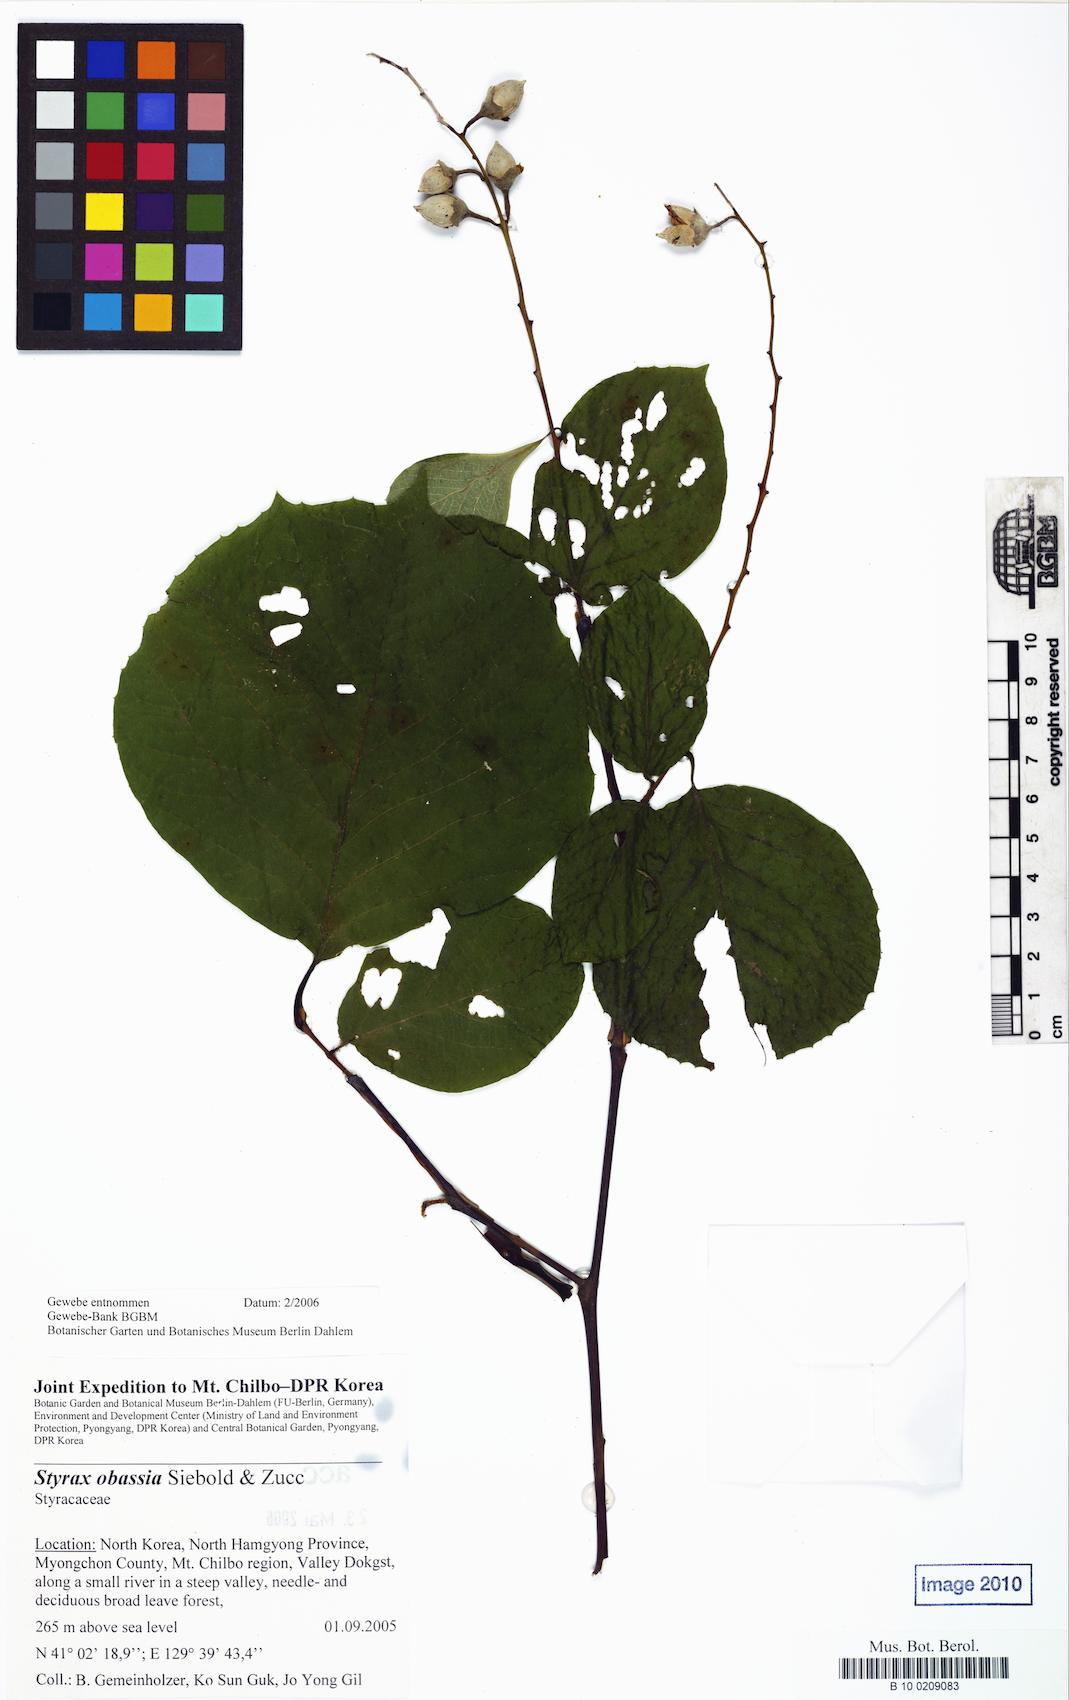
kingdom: Plantae
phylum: Tracheophyta
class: Magnoliopsida
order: Ericales
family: Styracaceae
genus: Styrax
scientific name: Styrax obassia
